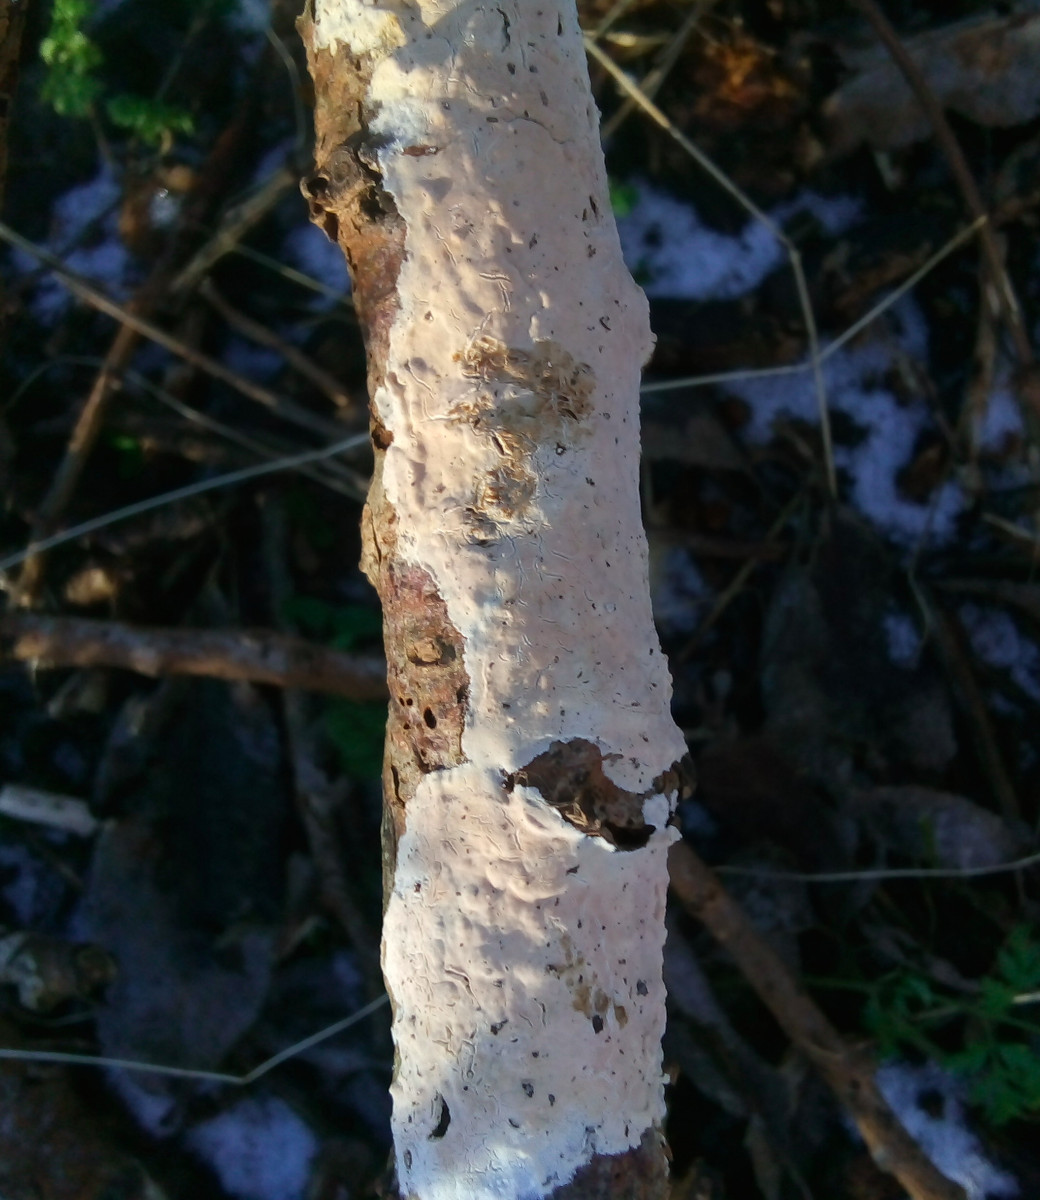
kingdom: Fungi
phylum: Basidiomycota
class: Agaricomycetes
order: Agaricales
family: Physalacriaceae
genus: Cylindrobasidium
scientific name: Cylindrobasidium evolvens
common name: sprækkehinde
